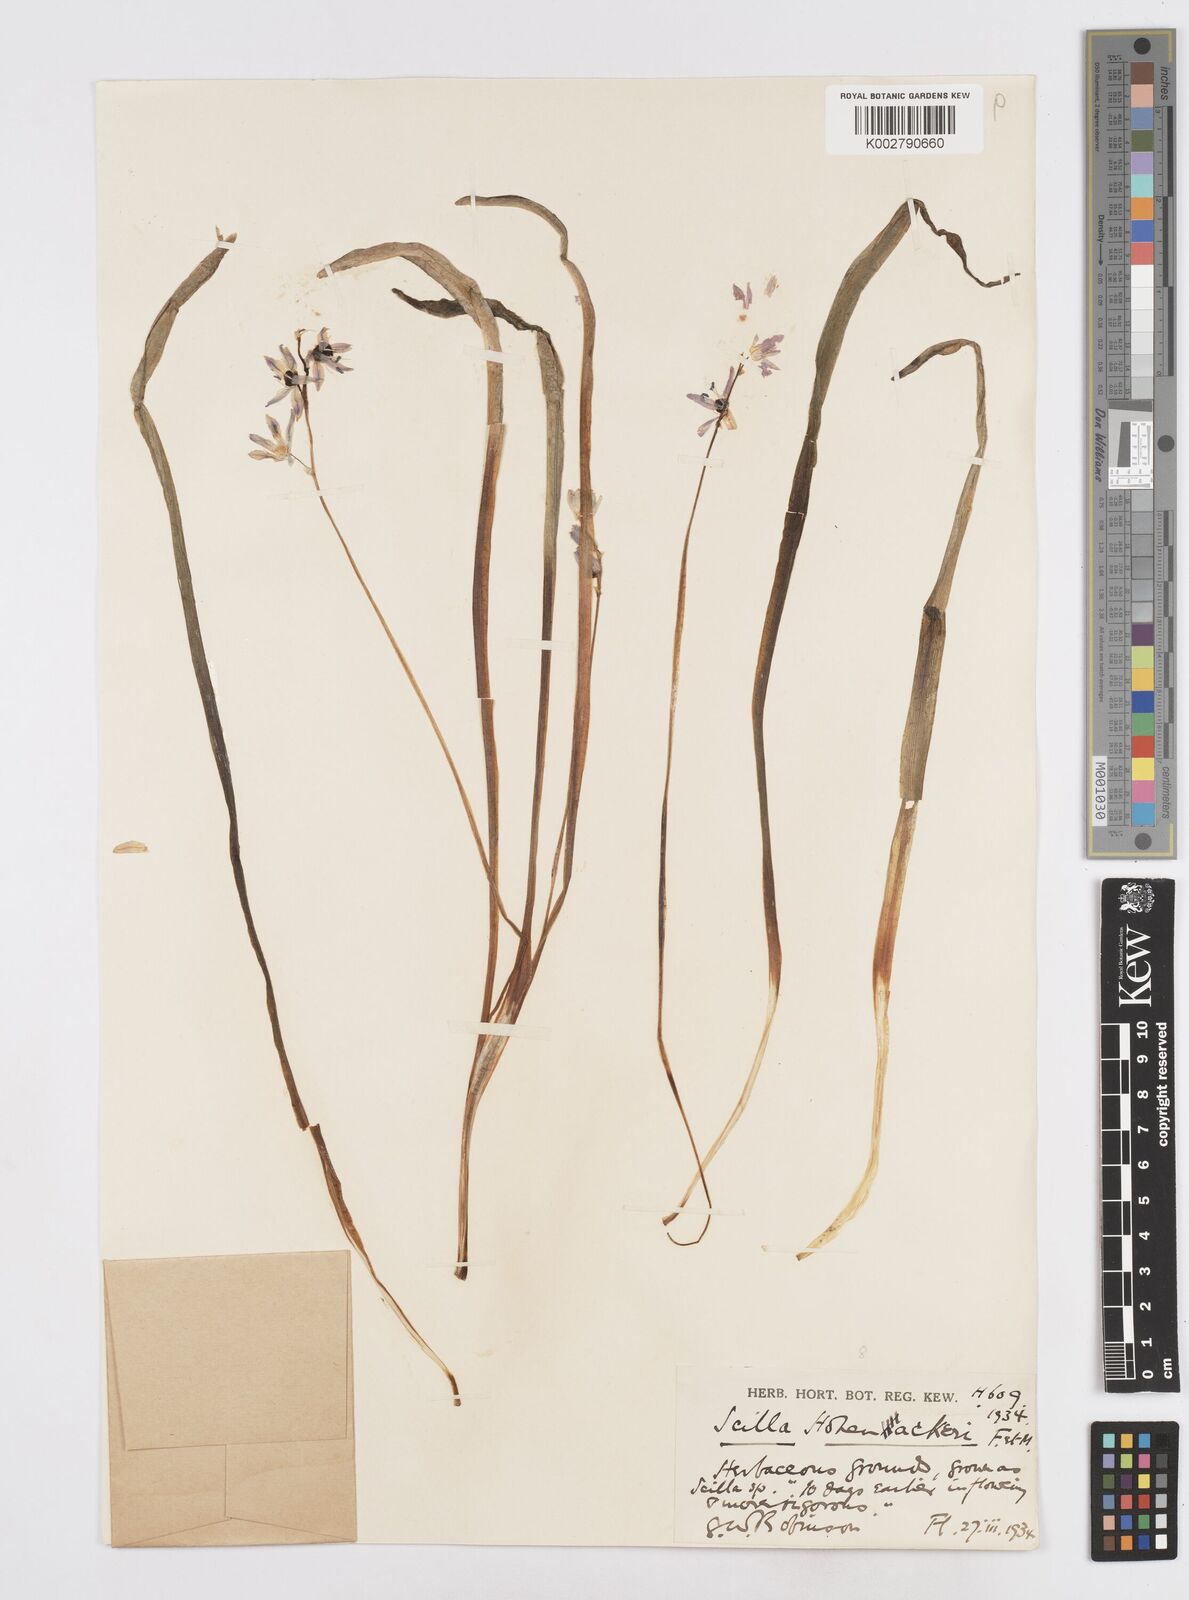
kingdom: Plantae
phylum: Tracheophyta
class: Liliopsida
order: Asparagales
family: Asparagaceae
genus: Scilla
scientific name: Scilla cilicica
